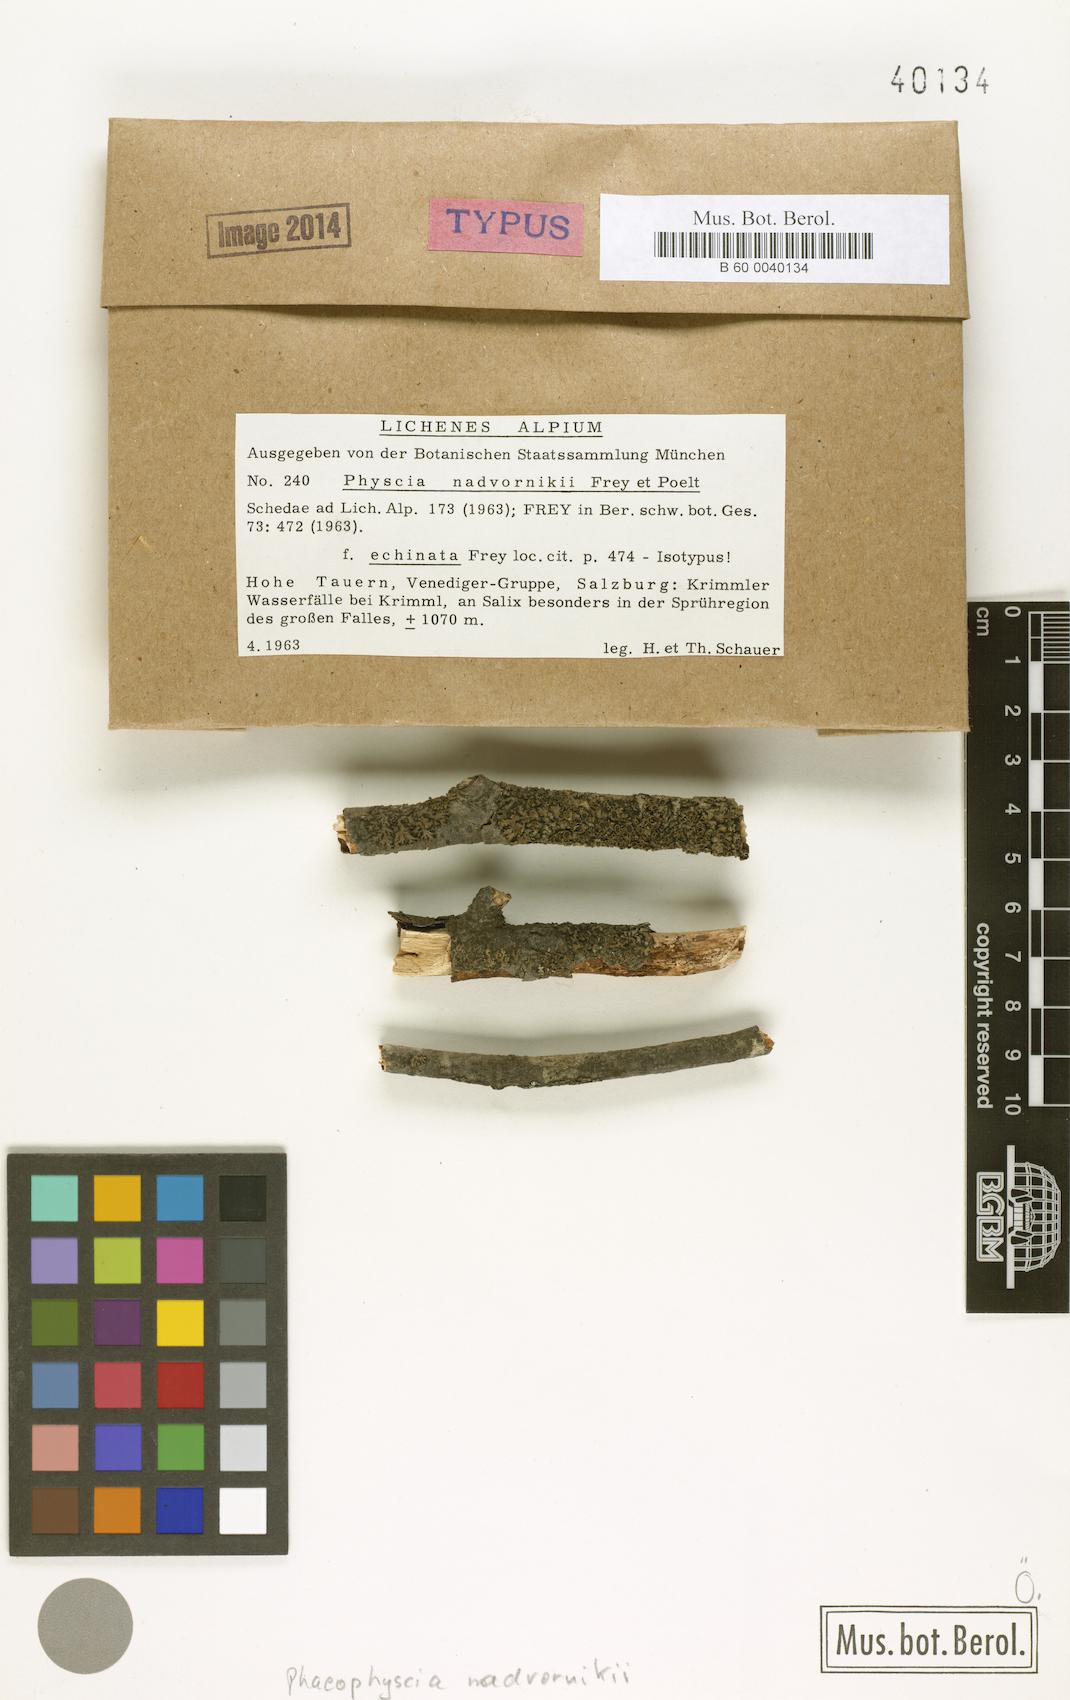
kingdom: Fungi
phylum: Ascomycota
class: Lecanoromycetes
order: Caliciales
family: Physciaceae
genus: Phaeophyscia
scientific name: Phaeophyscia kairamoi
